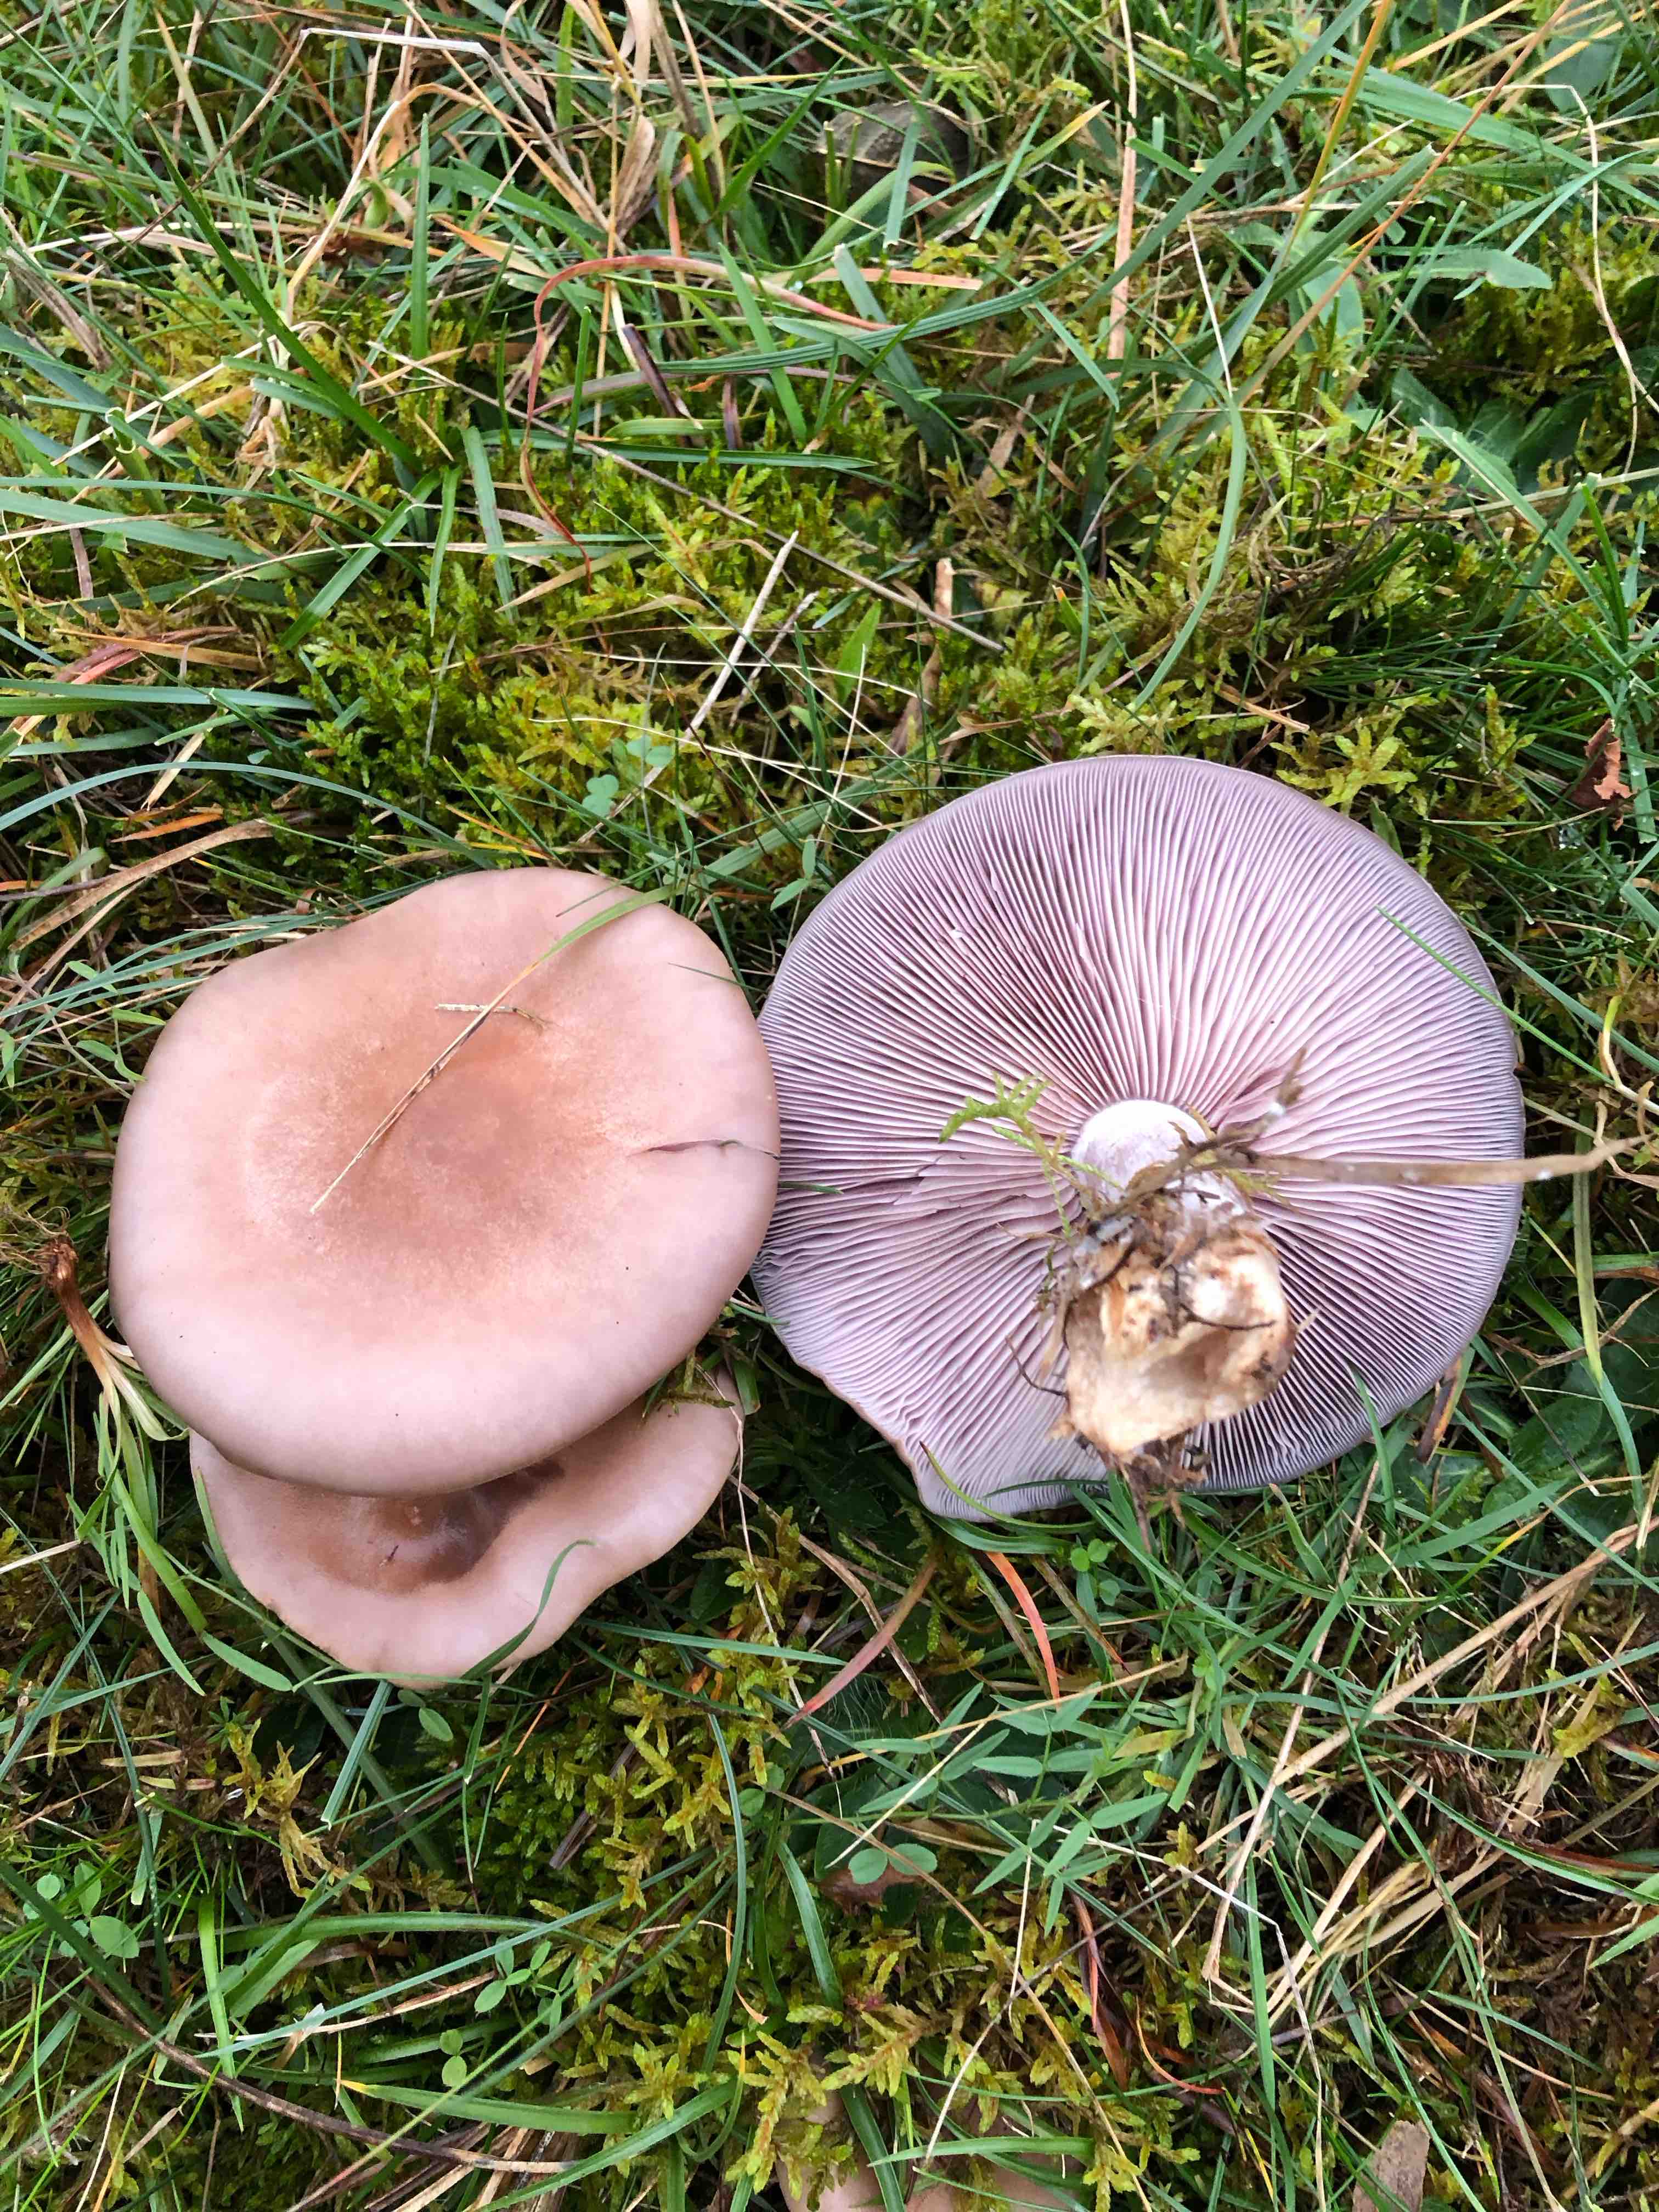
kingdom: Fungi
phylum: Basidiomycota
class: Agaricomycetes
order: Agaricales
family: Tricholomataceae
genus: Lepista
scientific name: Lepista nuda
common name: violet hekseringshat
